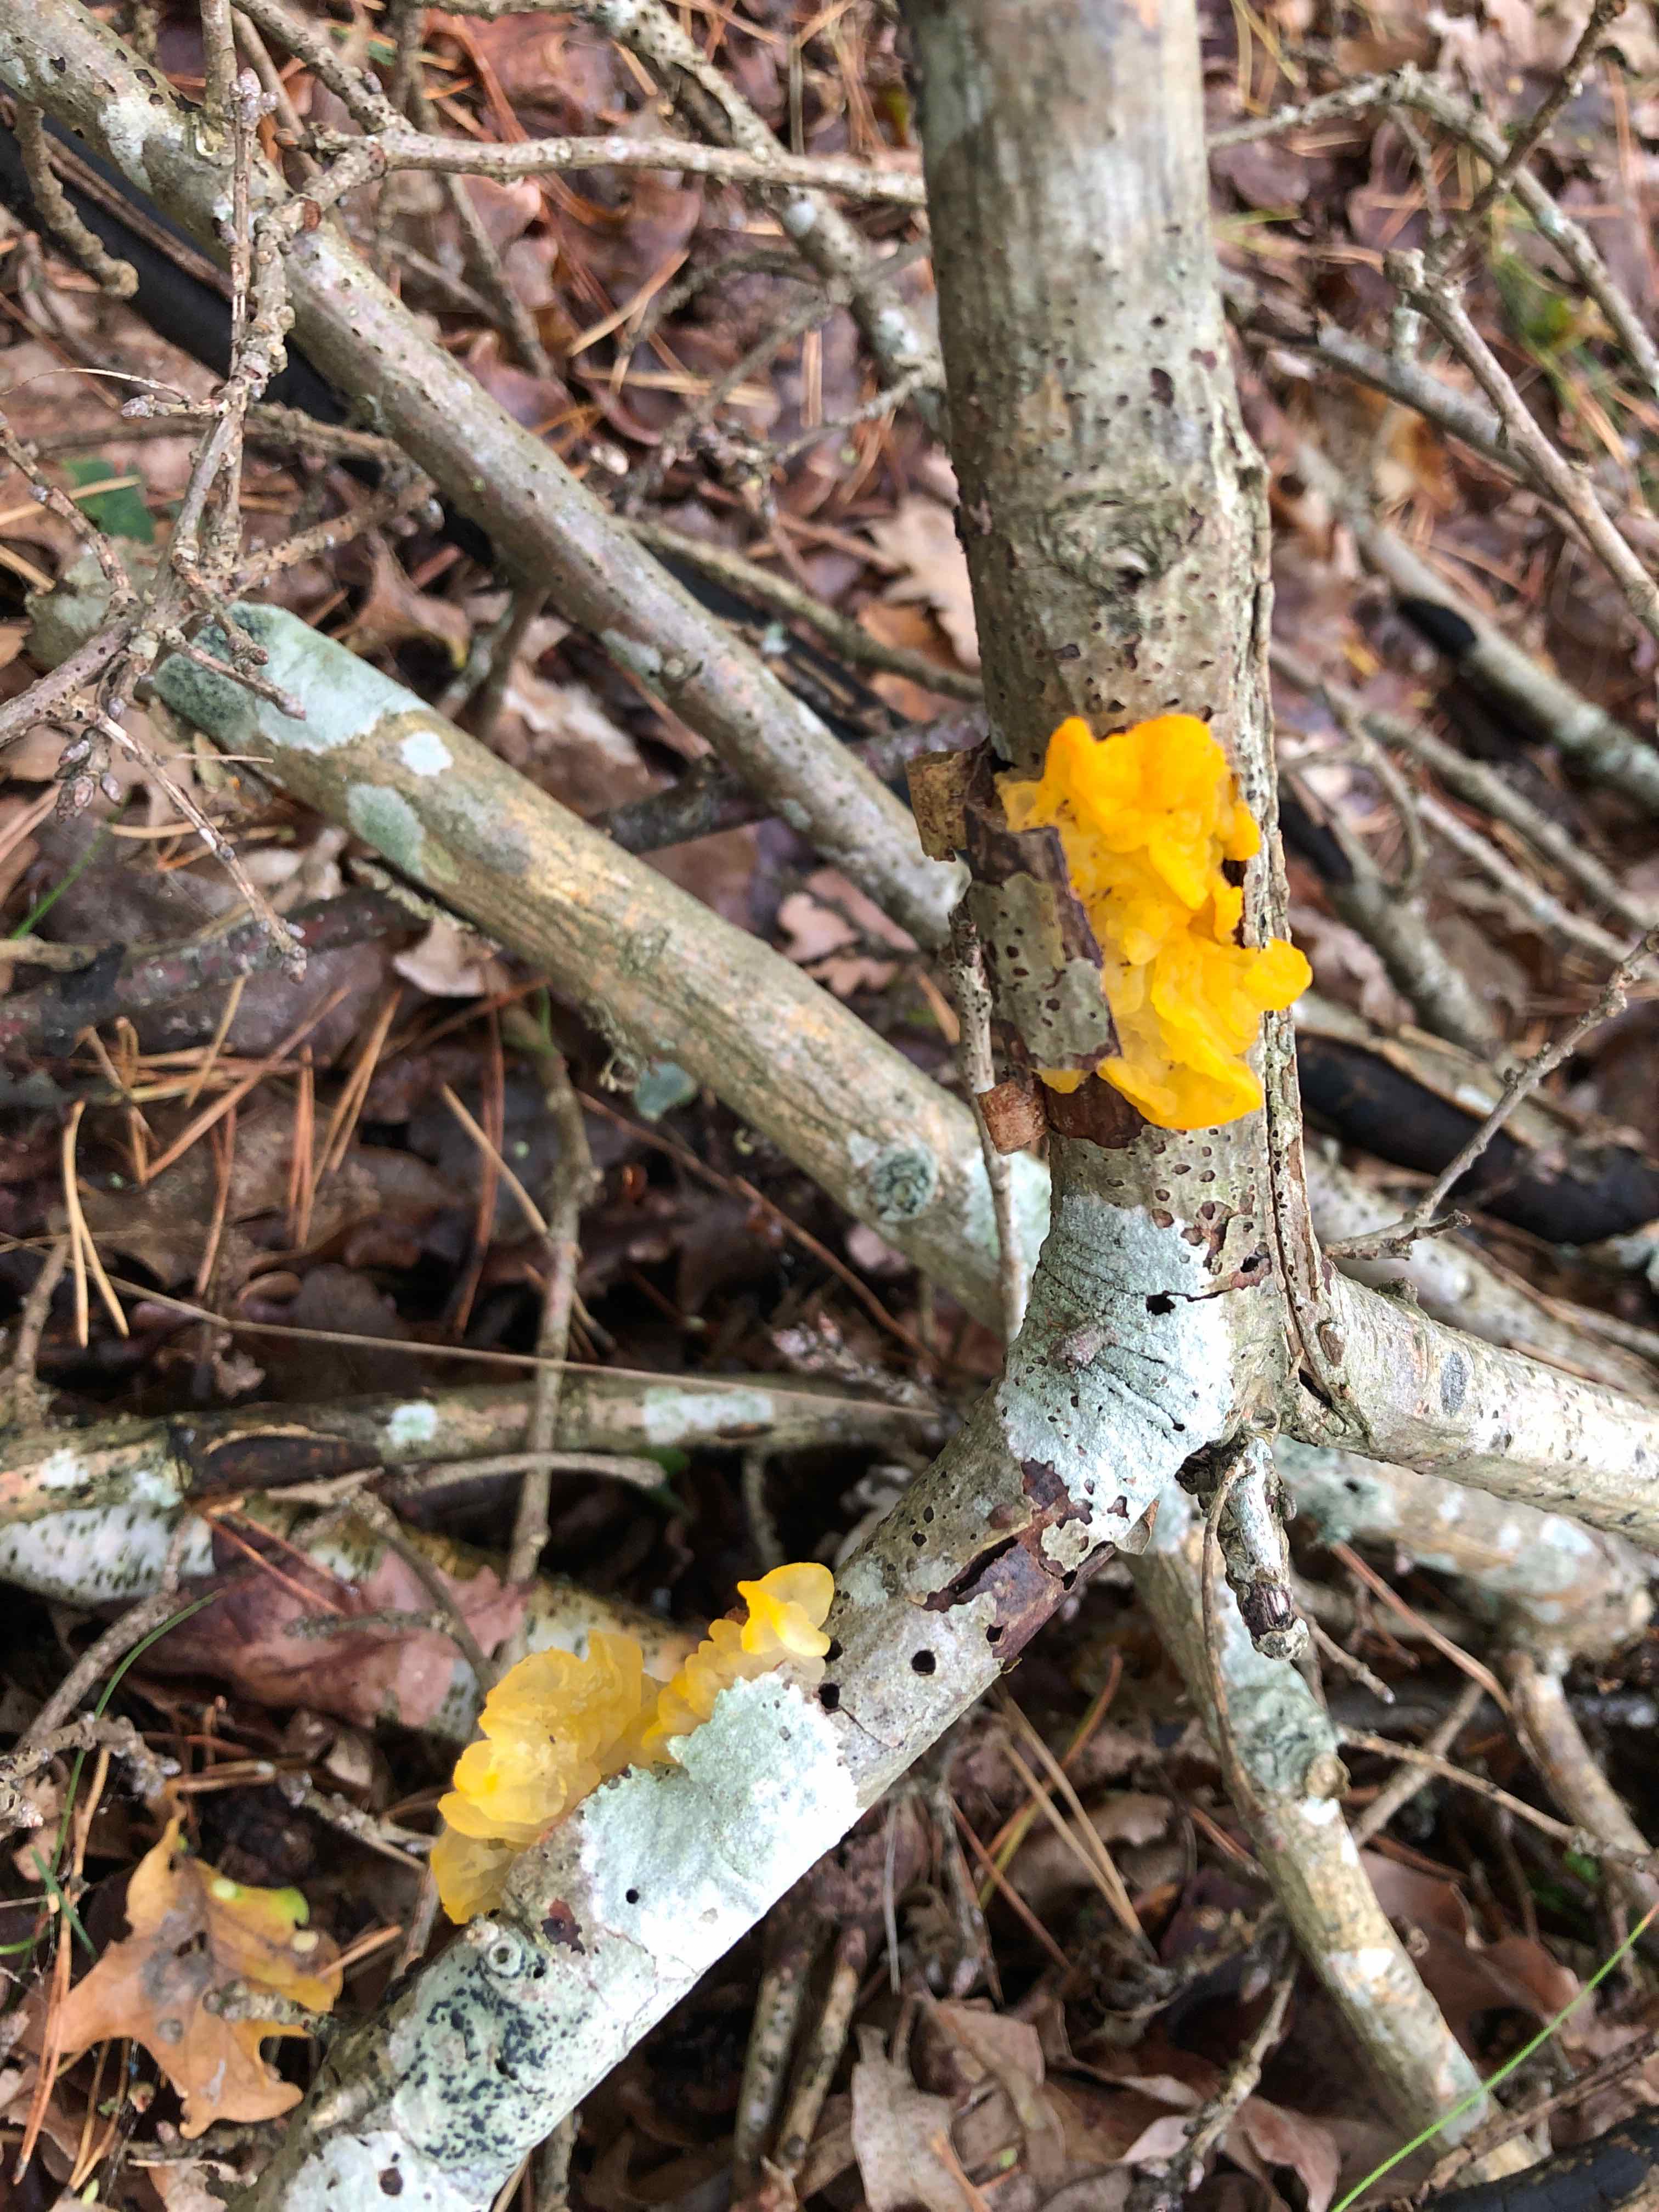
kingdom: Fungi
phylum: Basidiomycota
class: Tremellomycetes
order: Tremellales
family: Tremellaceae
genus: Tremella
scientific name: Tremella mesenterica
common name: gul bævresvamp
